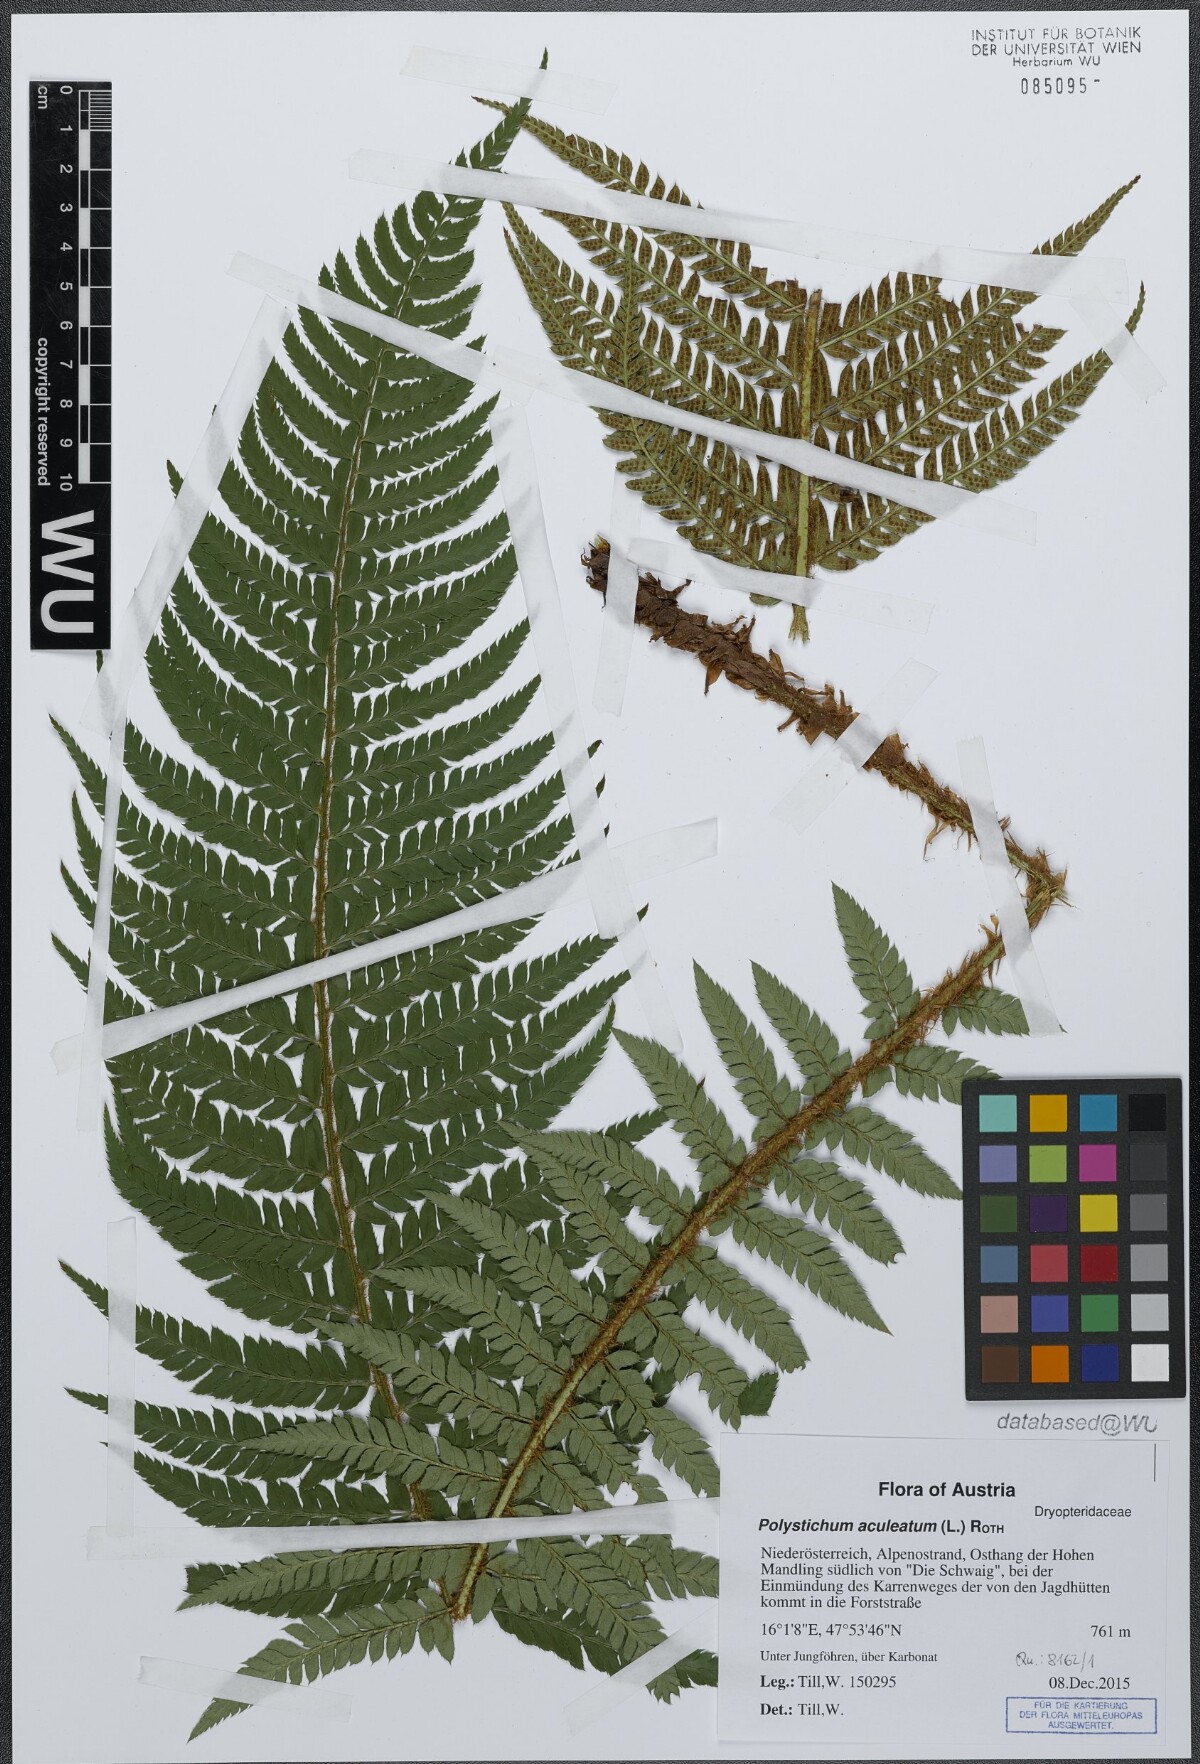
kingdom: Plantae
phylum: Tracheophyta
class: Polypodiopsida
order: Polypodiales
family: Dryopteridaceae
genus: Polystichum
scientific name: Polystichum aculeatum
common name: Hard shield-fern
